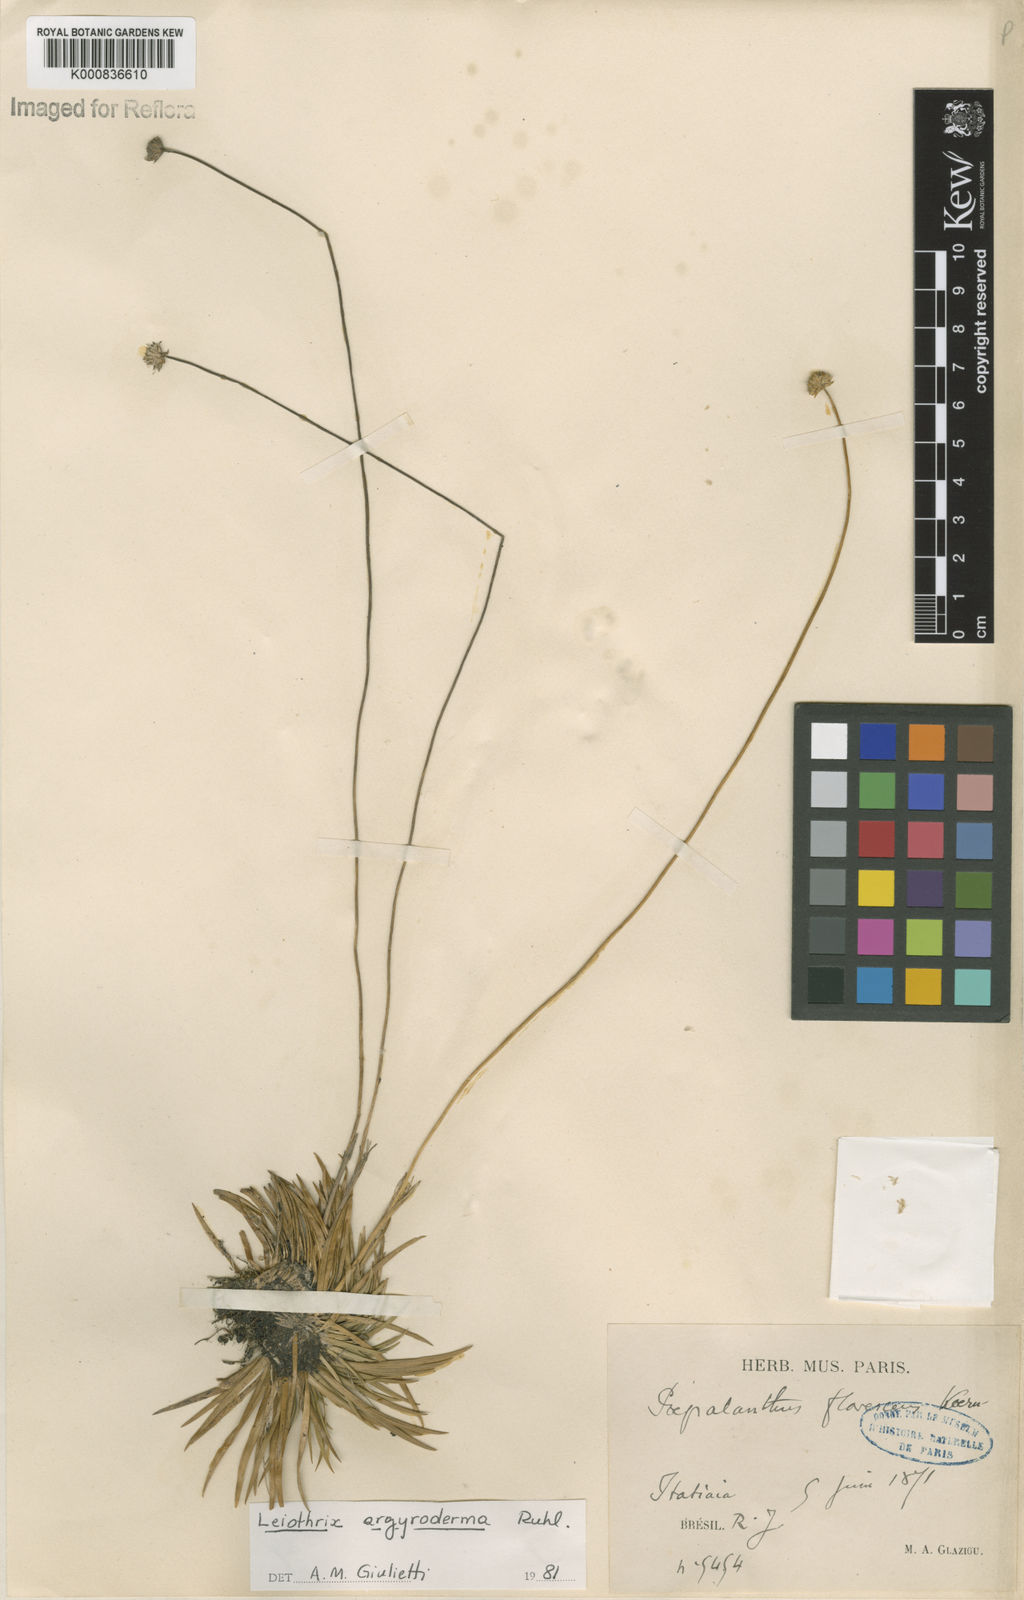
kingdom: Plantae
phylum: Tracheophyta
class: Liliopsida
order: Poales
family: Eriocaulaceae
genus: Leiothrix
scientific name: Leiothrix argyroderma
